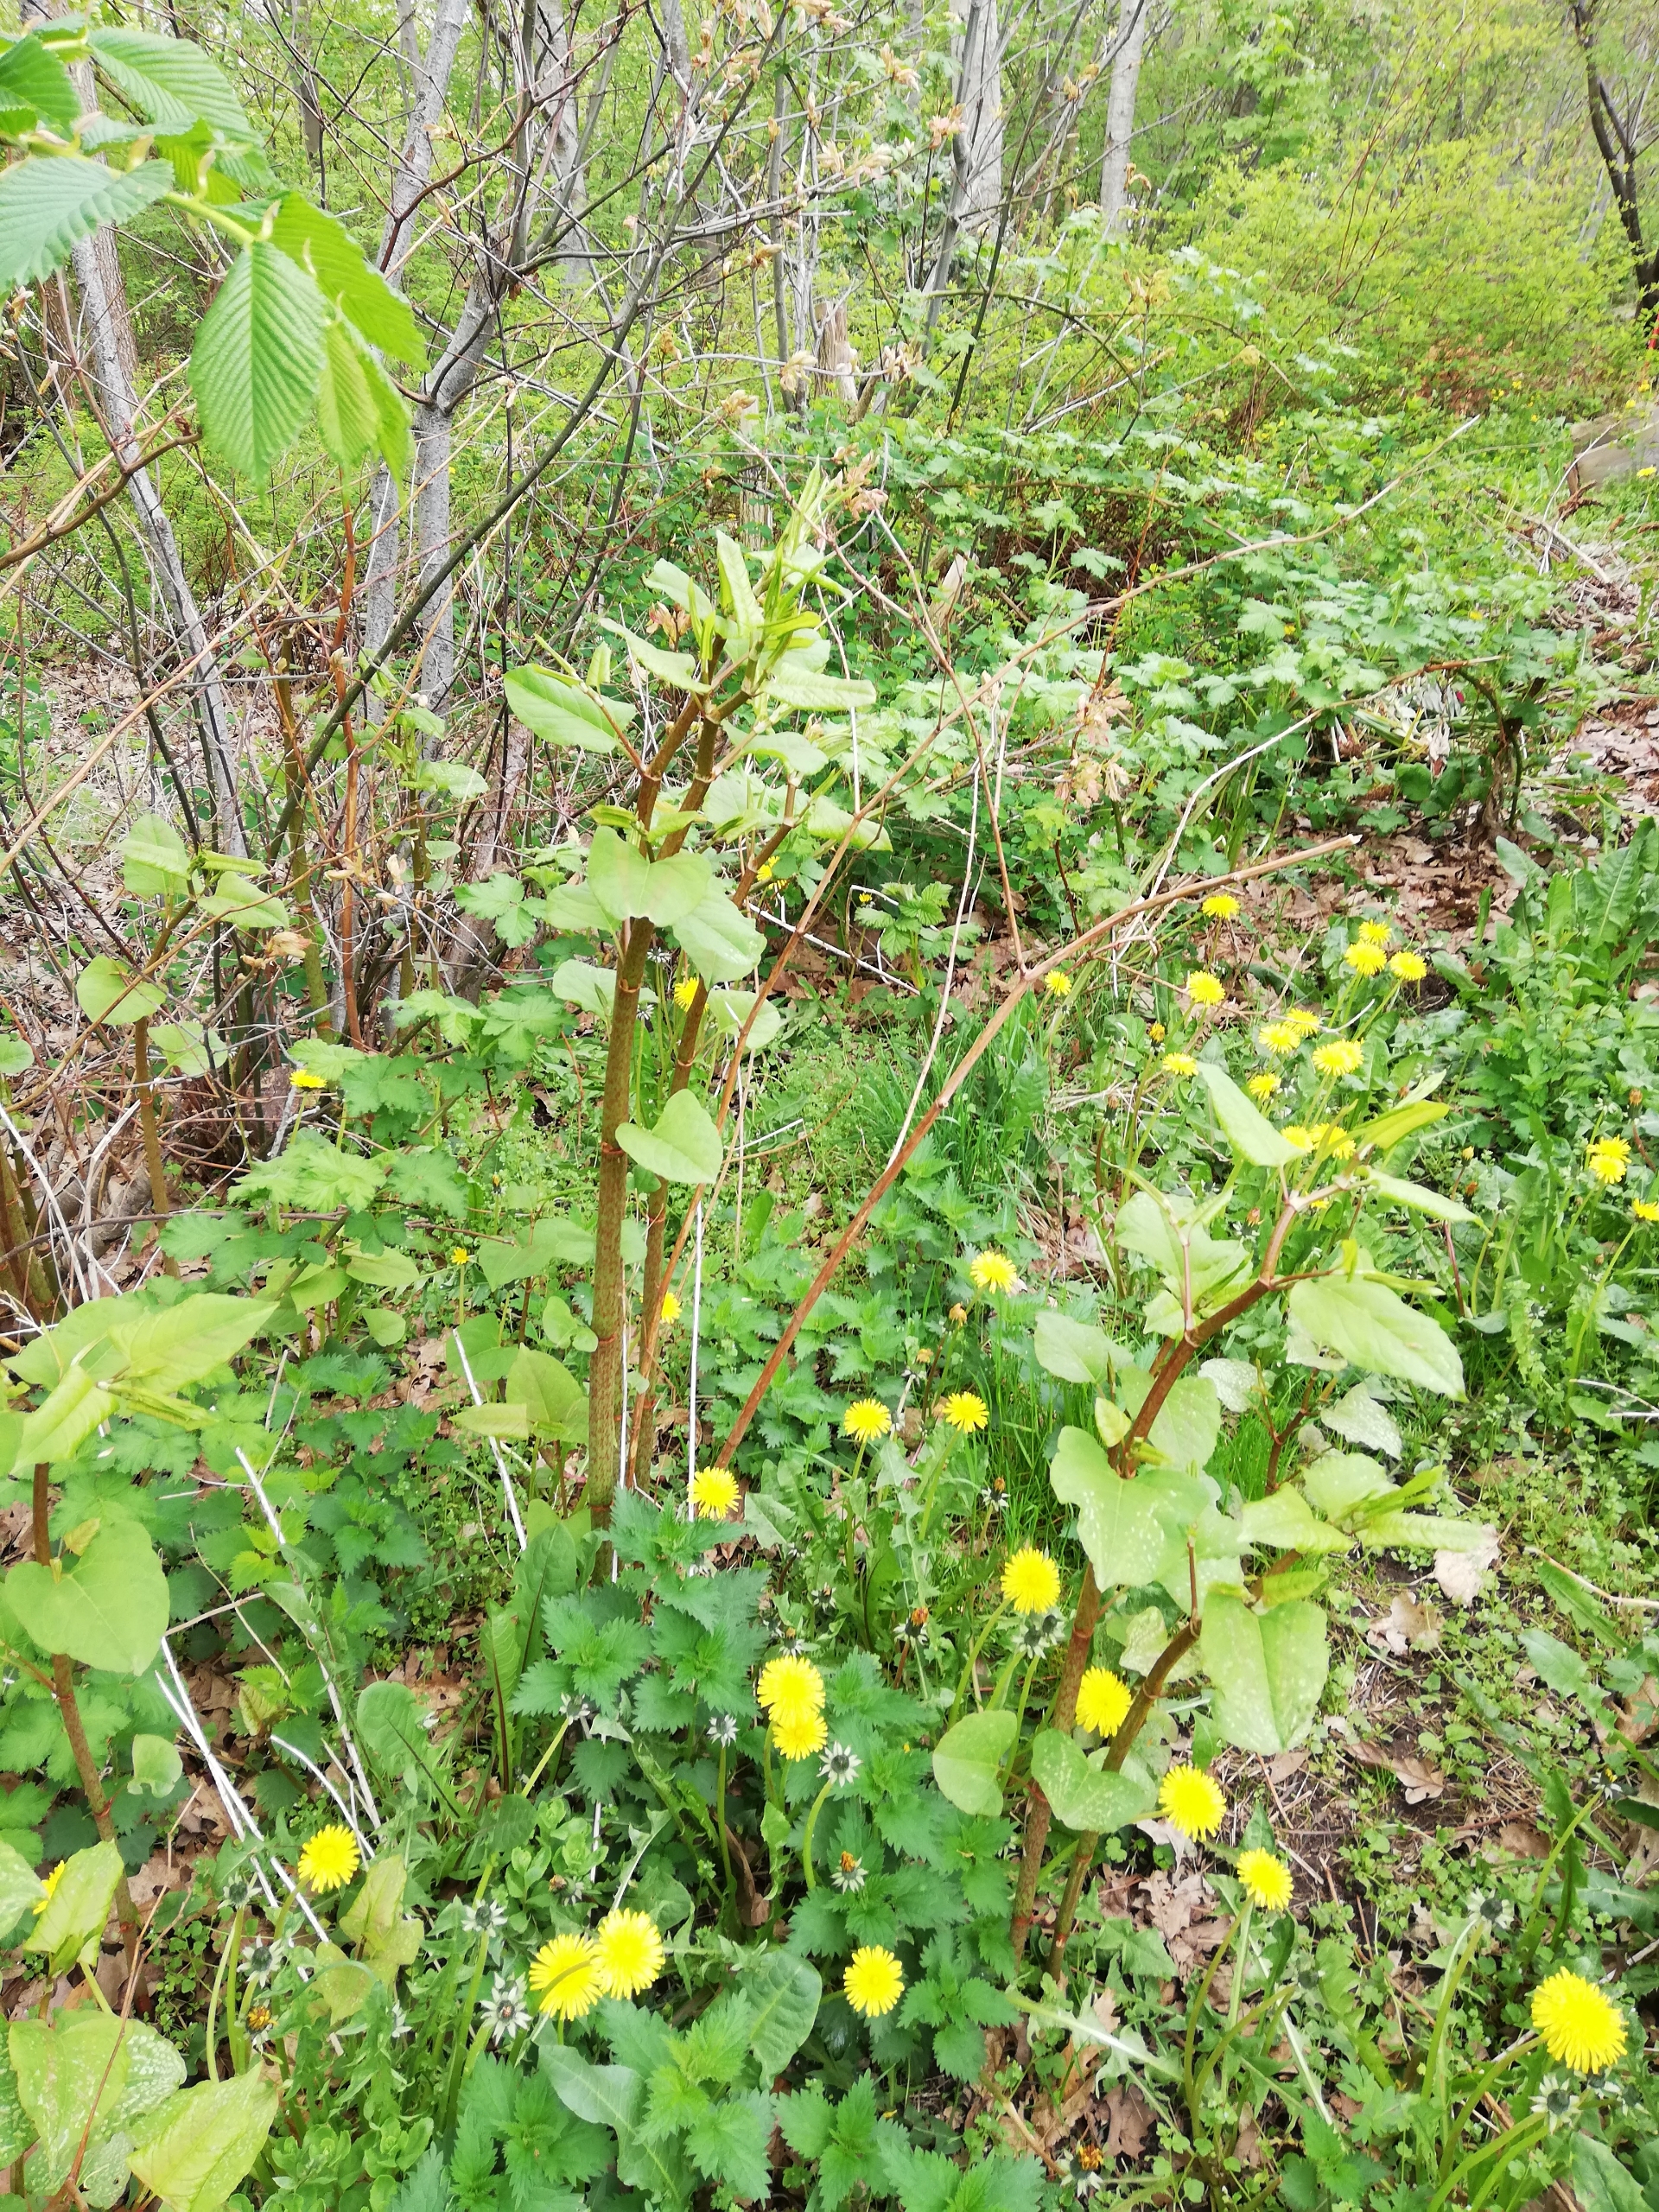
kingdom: Plantae
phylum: Tracheophyta
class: Magnoliopsida
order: Caryophyllales
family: Polygonaceae
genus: Reynoutria
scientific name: Reynoutria bohemica
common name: Hybrid-pileurt
